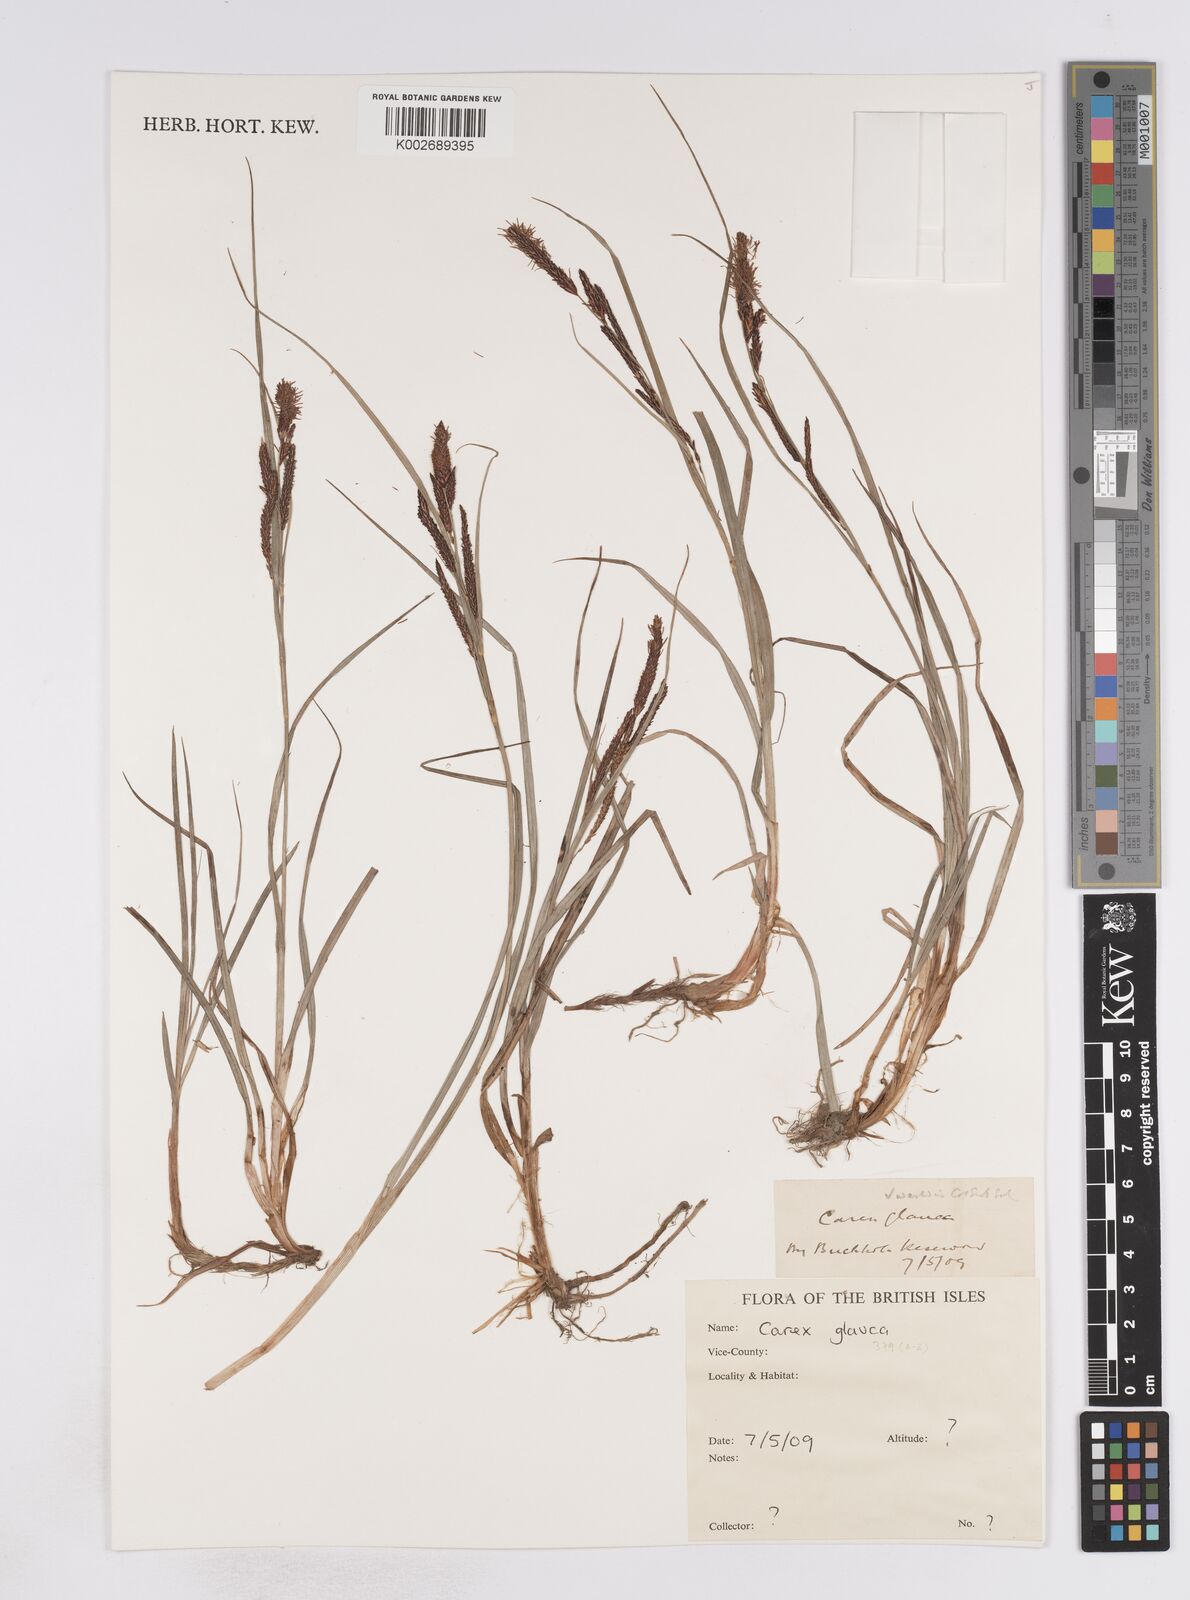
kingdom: Plantae
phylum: Tracheophyta
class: Liliopsida
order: Poales
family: Cyperaceae
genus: Carex
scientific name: Carex flacca
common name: Glaucous sedge
